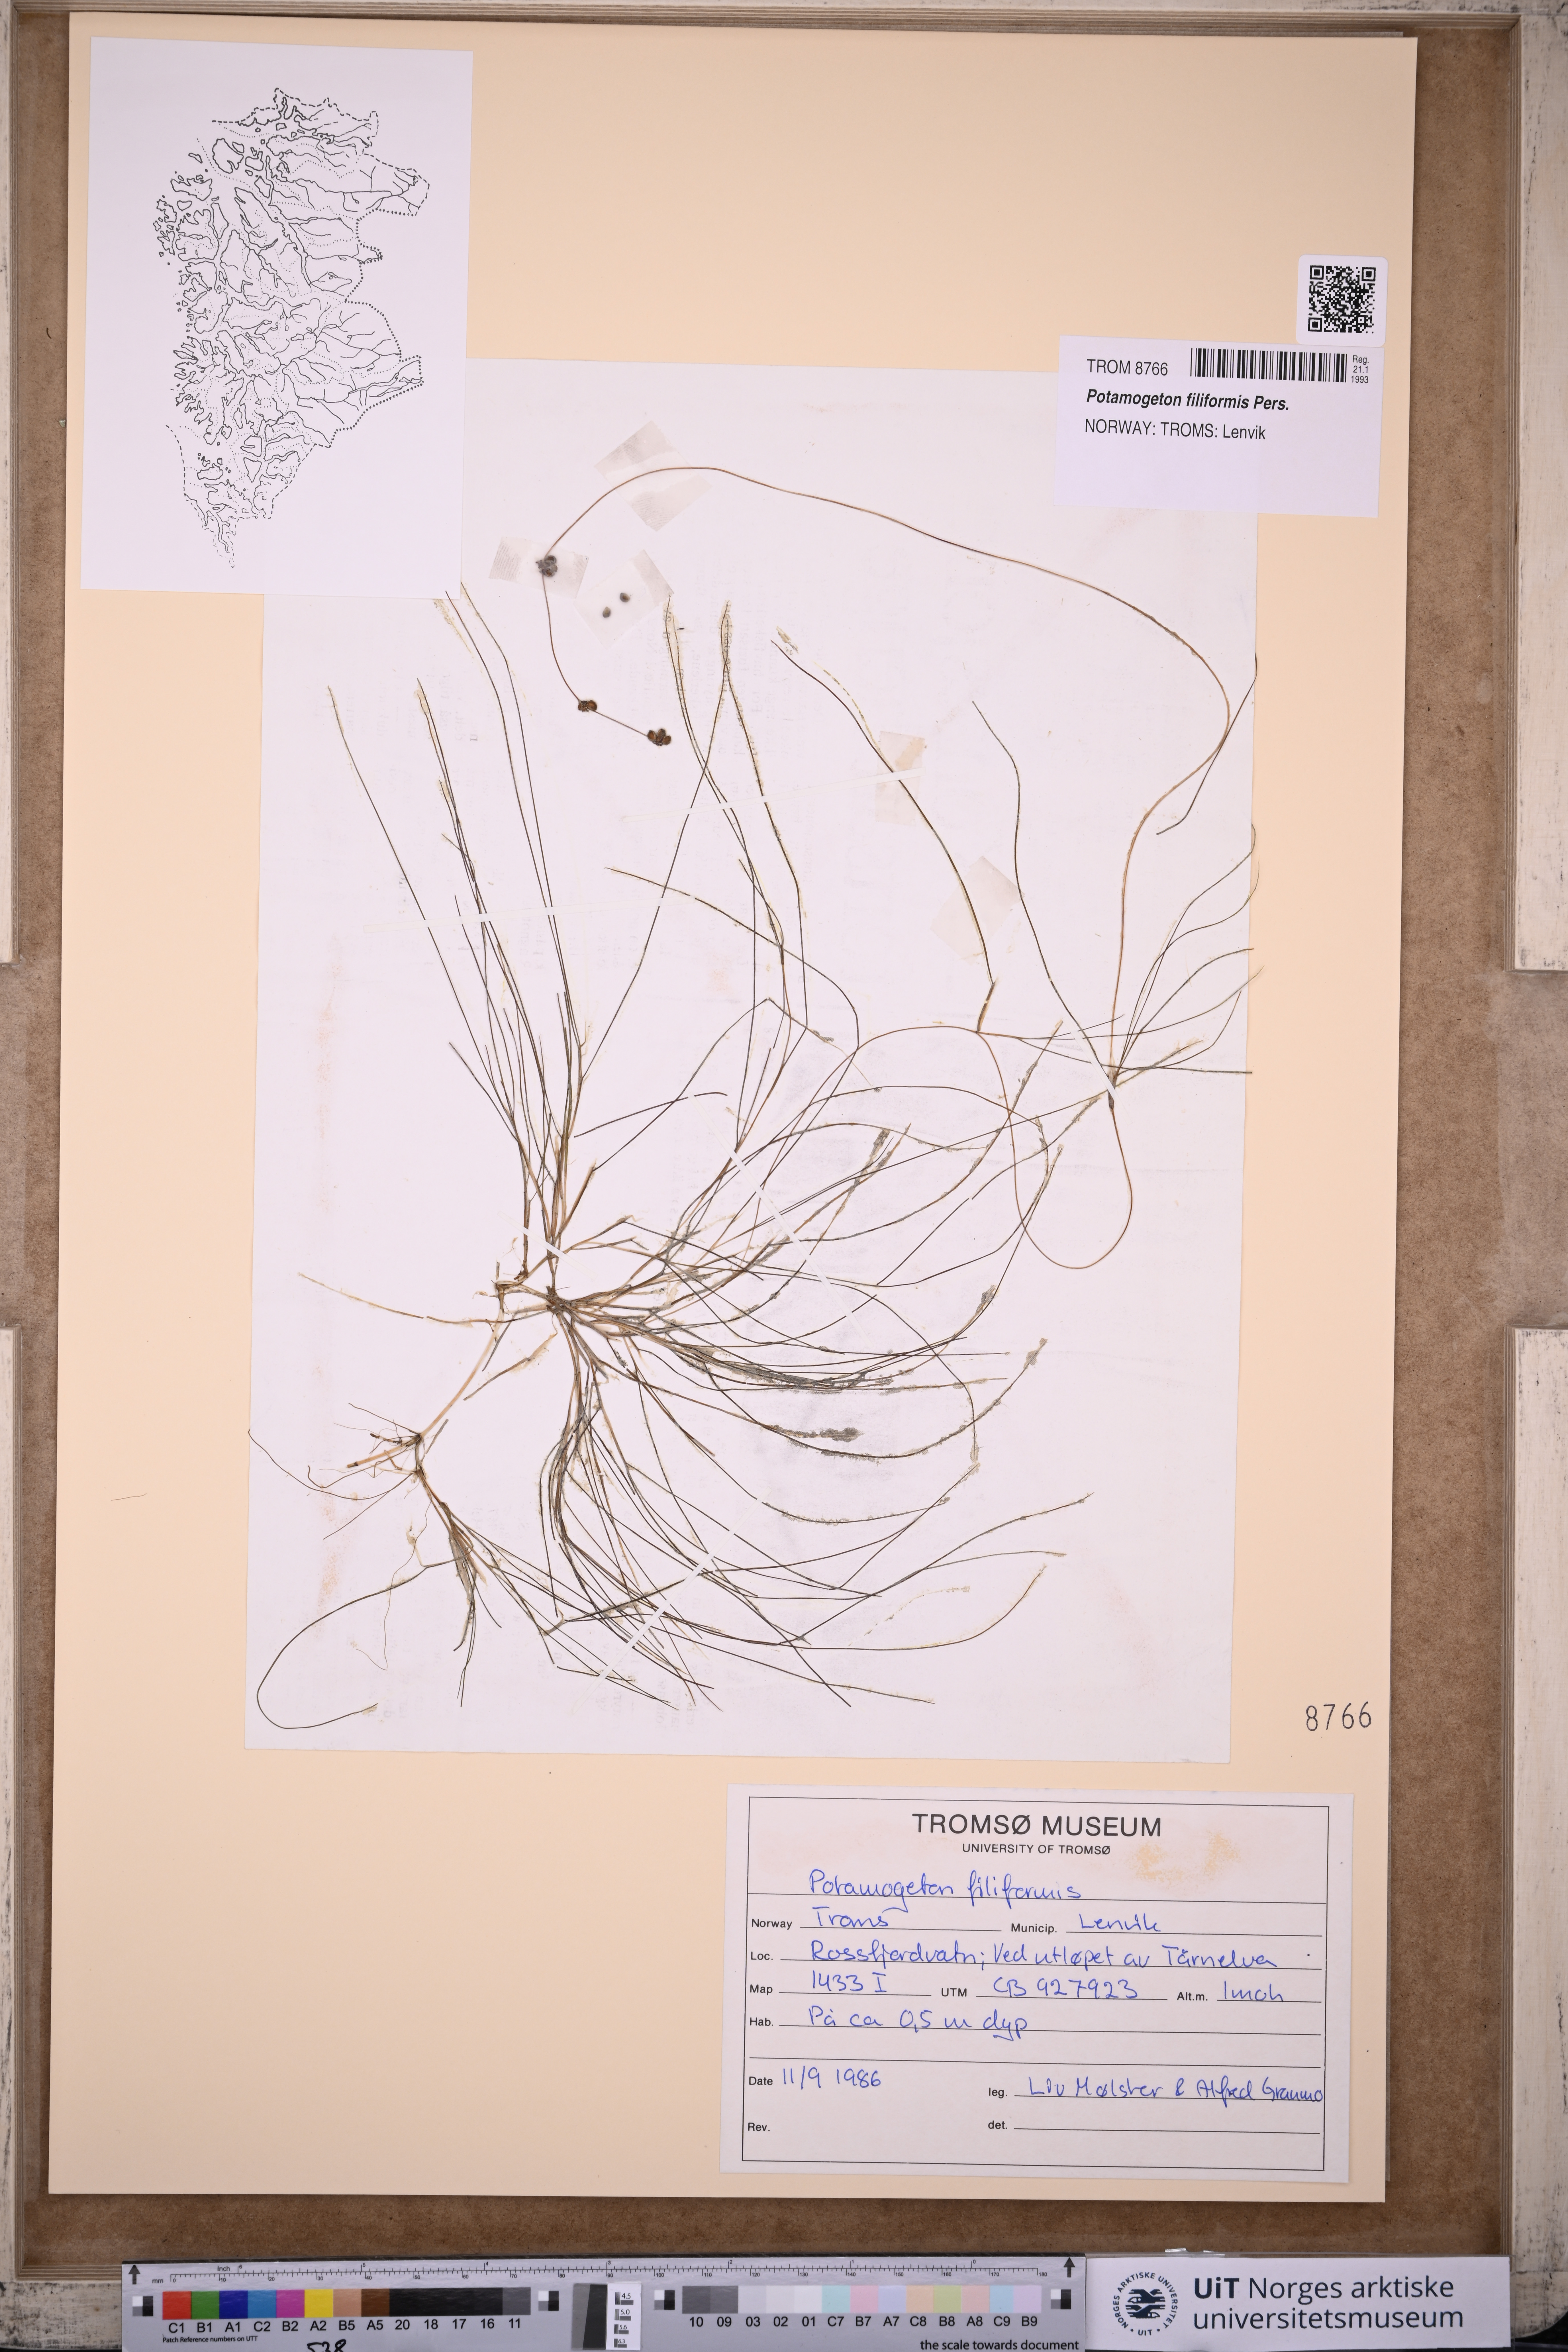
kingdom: Plantae
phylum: Tracheophyta
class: Liliopsida
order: Alismatales
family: Potamogetonaceae
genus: Stuckenia
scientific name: Stuckenia filiformis
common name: Alpine thread-leaved pondweed
